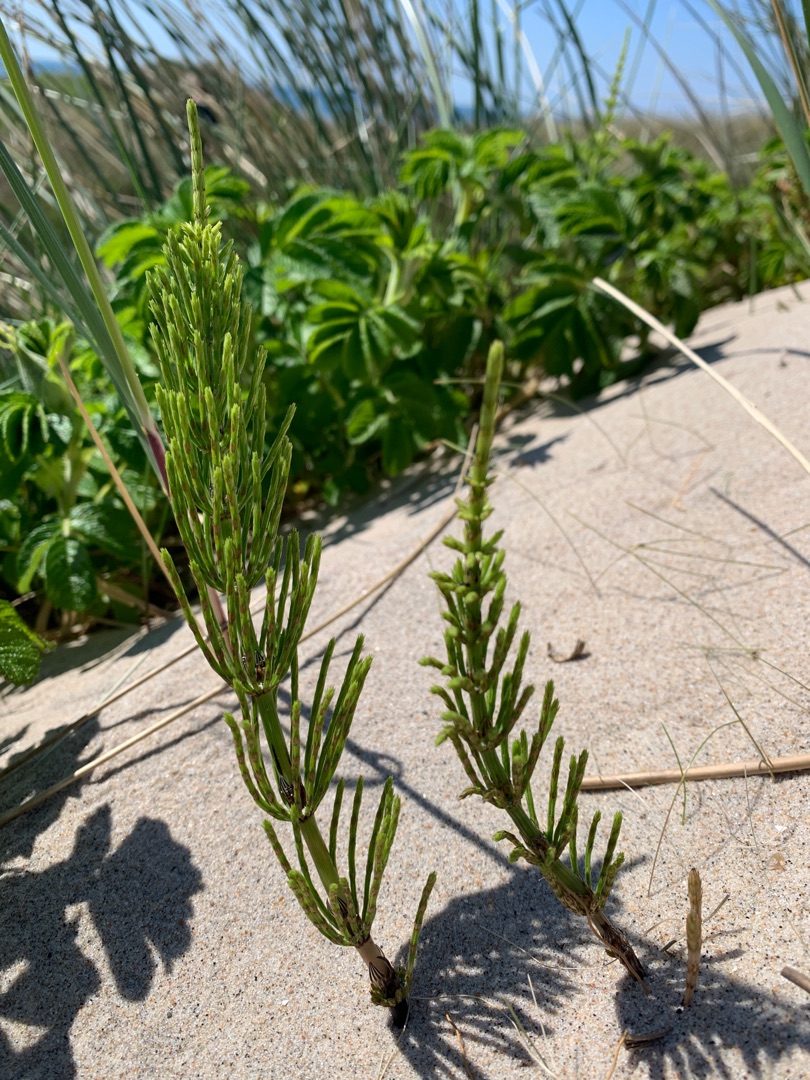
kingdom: Plantae
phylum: Tracheophyta
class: Polypodiopsida
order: Equisetales
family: Equisetaceae
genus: Equisetum
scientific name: Equisetum arvense
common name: Ager-padderok
